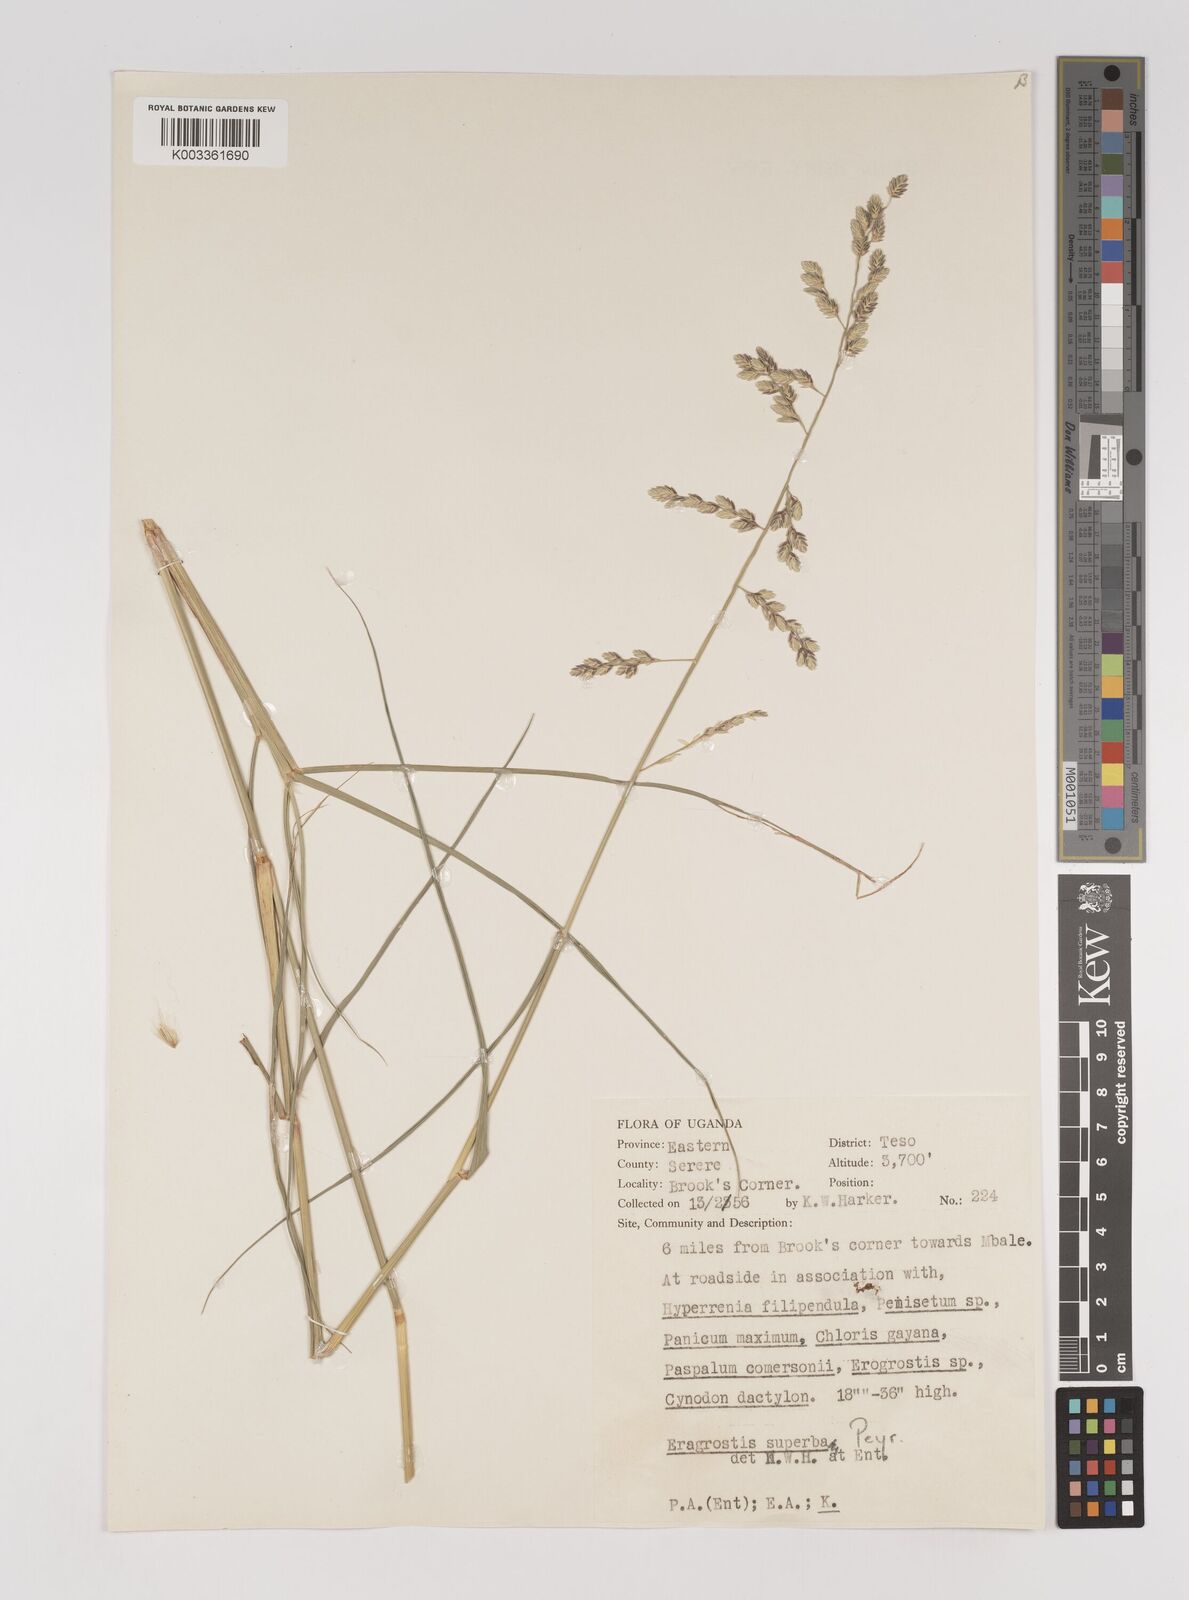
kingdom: Plantae
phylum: Tracheophyta
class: Liliopsida
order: Poales
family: Poaceae
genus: Eragrostis
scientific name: Eragrostis superba
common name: Wilman lovegrass
